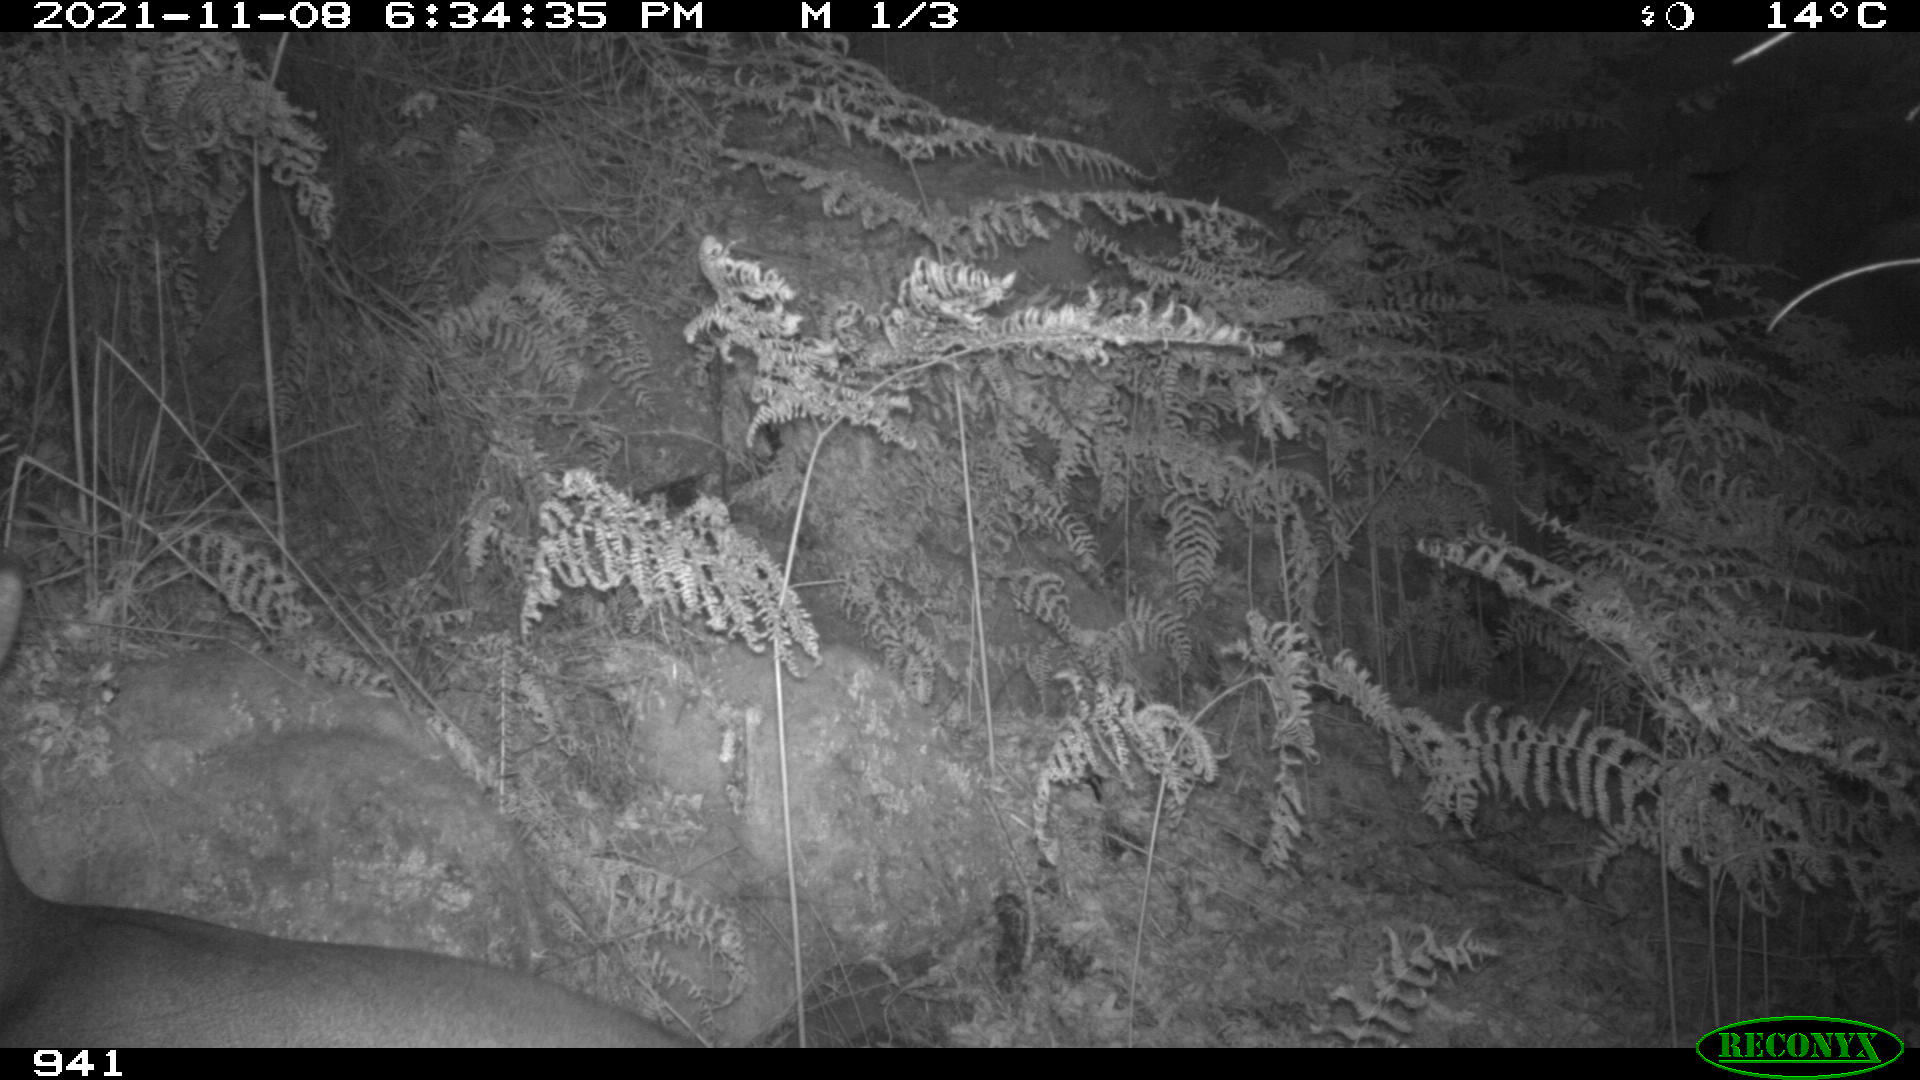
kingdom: Animalia
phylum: Chordata
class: Mammalia
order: Artiodactyla
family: Cervidae
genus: Capreolus
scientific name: Capreolus capreolus
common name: Western roe deer
